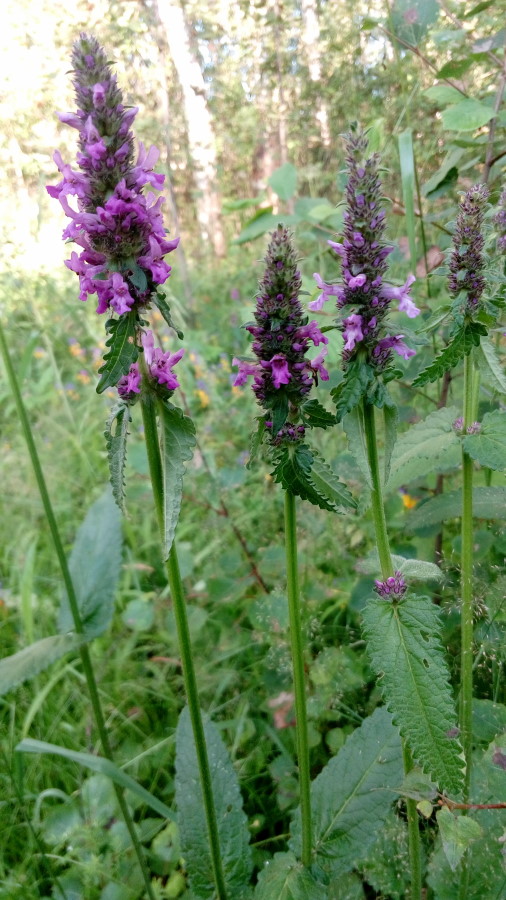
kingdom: Plantae
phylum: Tracheophyta
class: Magnoliopsida
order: Lamiales
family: Lamiaceae
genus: Betonica
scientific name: Betonica officinalis
